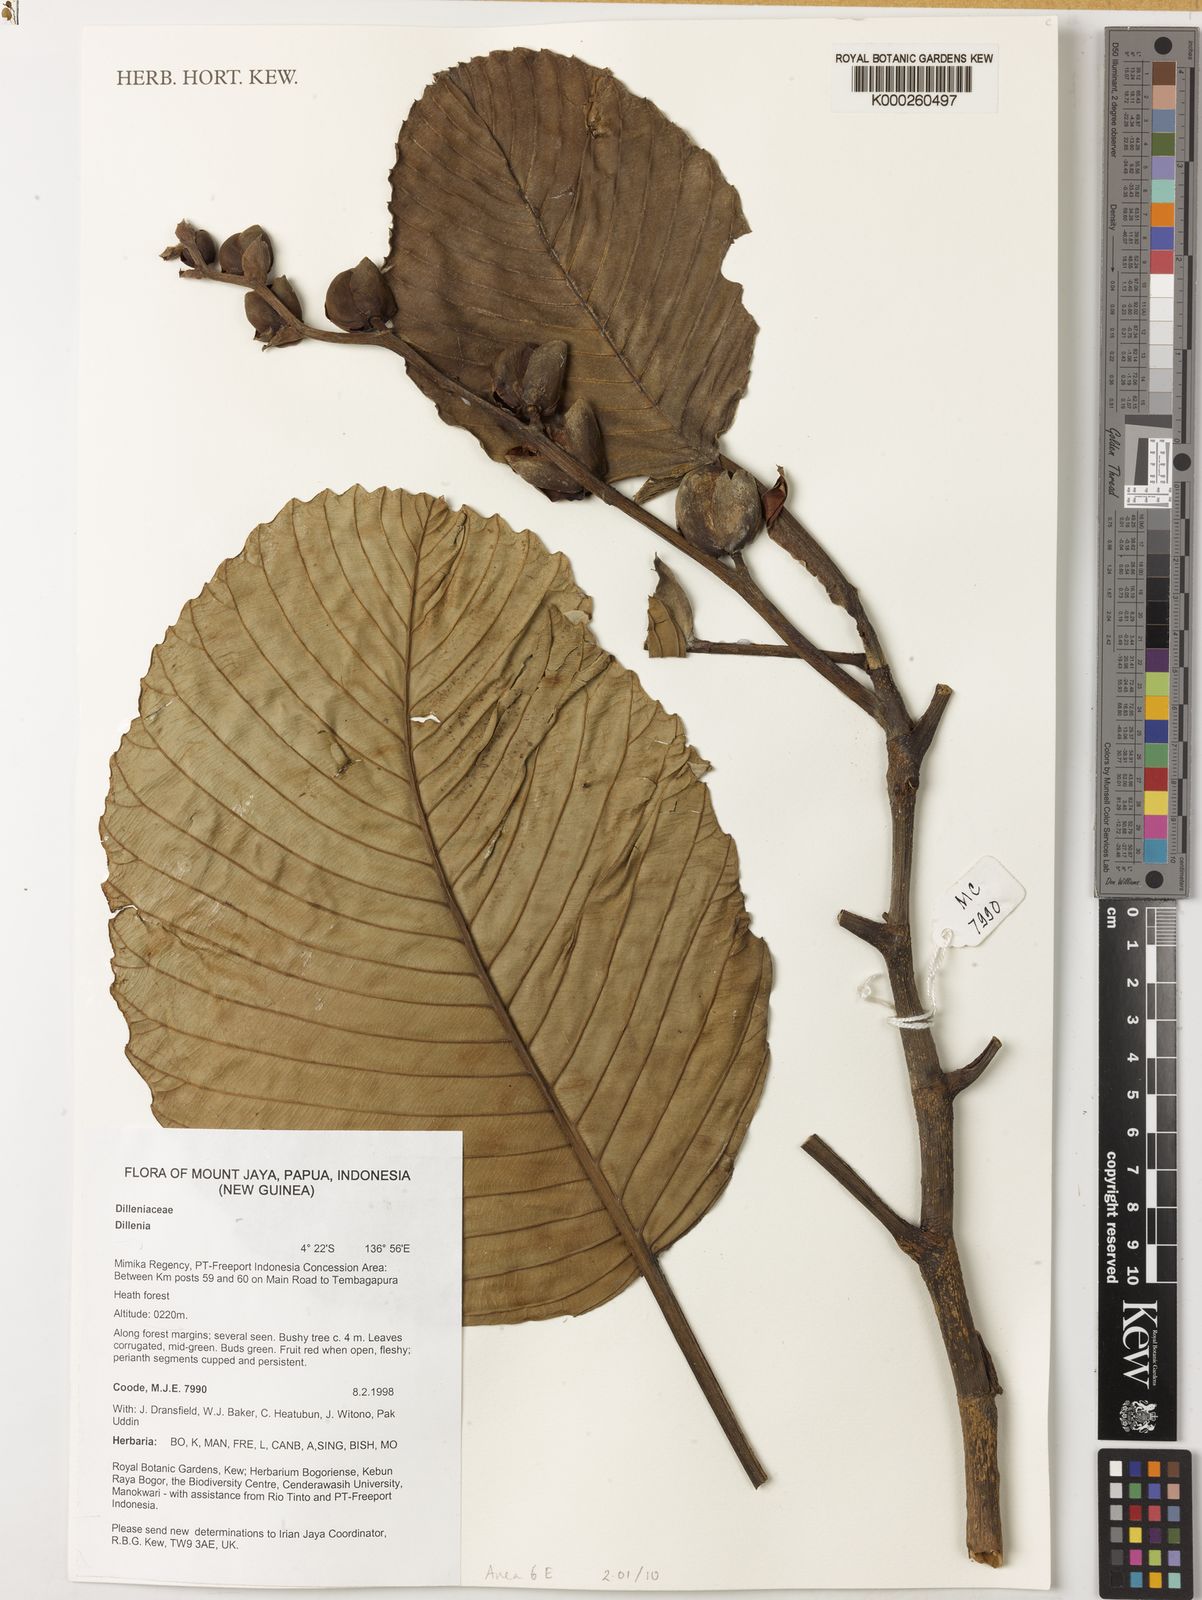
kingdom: Plantae
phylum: Tracheophyta
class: Magnoliopsida
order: Dilleniales
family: Dilleniaceae
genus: Dillenia
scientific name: Dillenia
